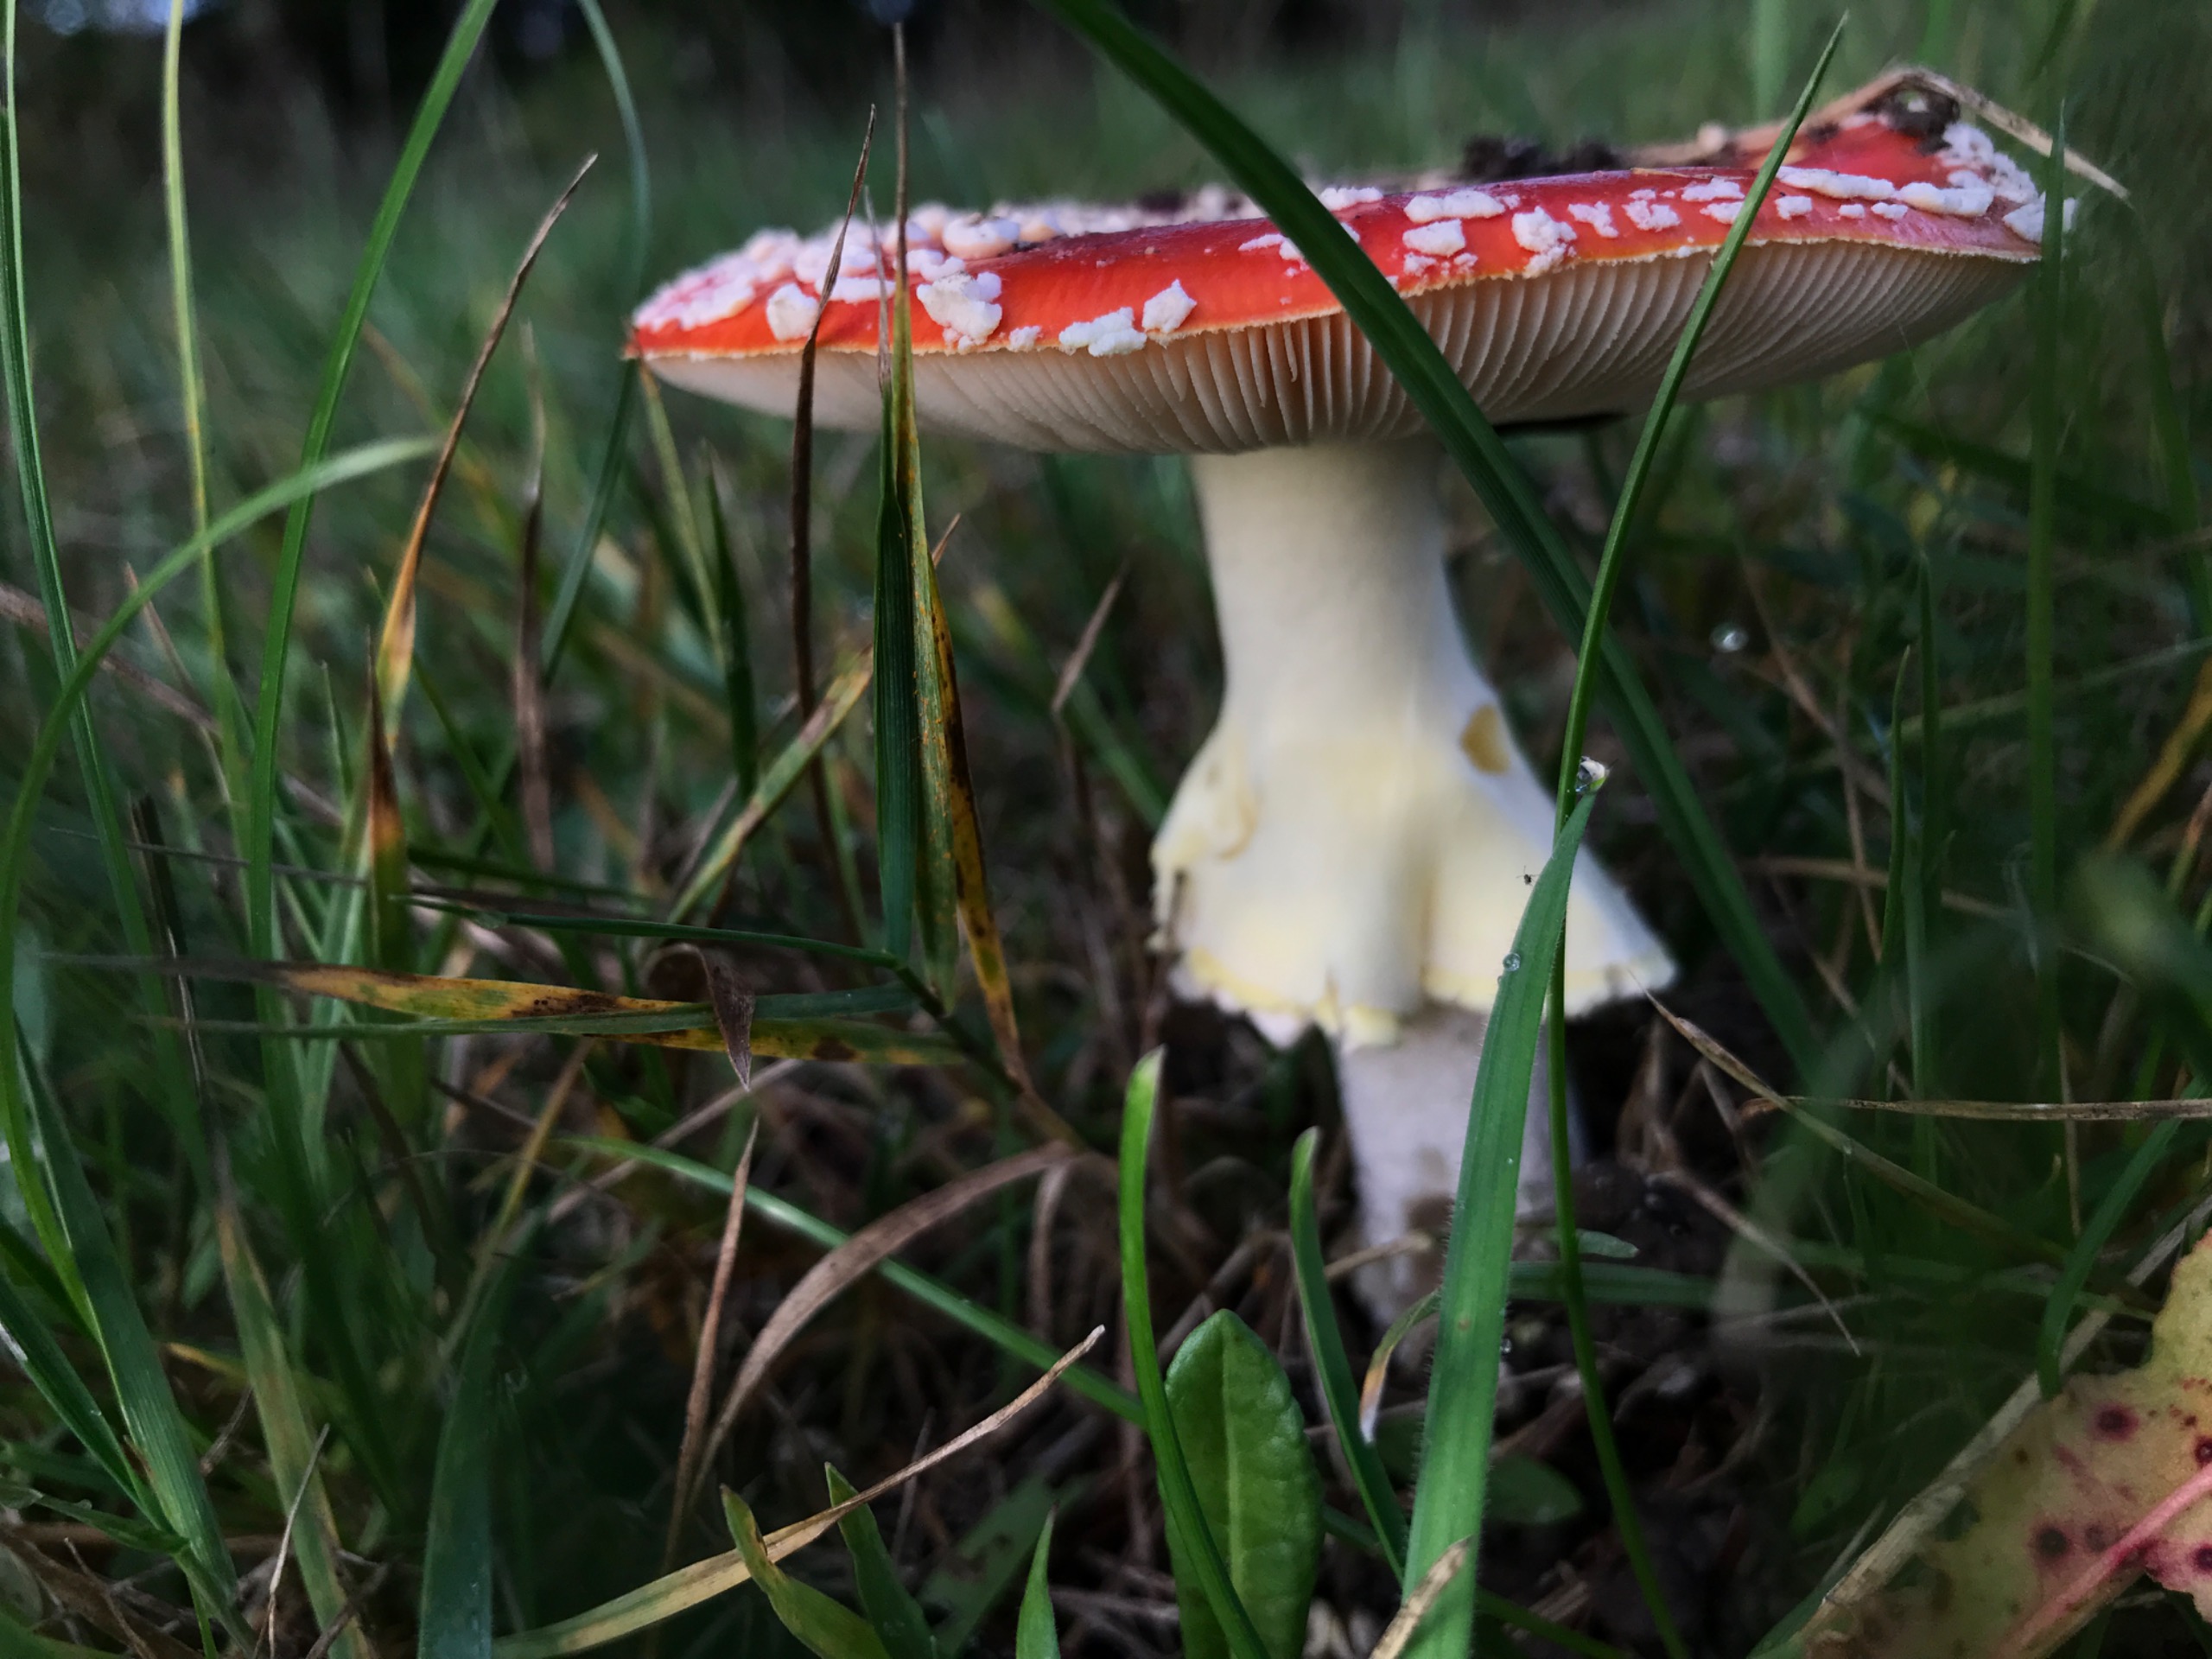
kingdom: Fungi
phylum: Basidiomycota
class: Agaricomycetes
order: Agaricales
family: Amanitaceae
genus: Amanita
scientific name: Amanita muscaria
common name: Rød fluesvamp
